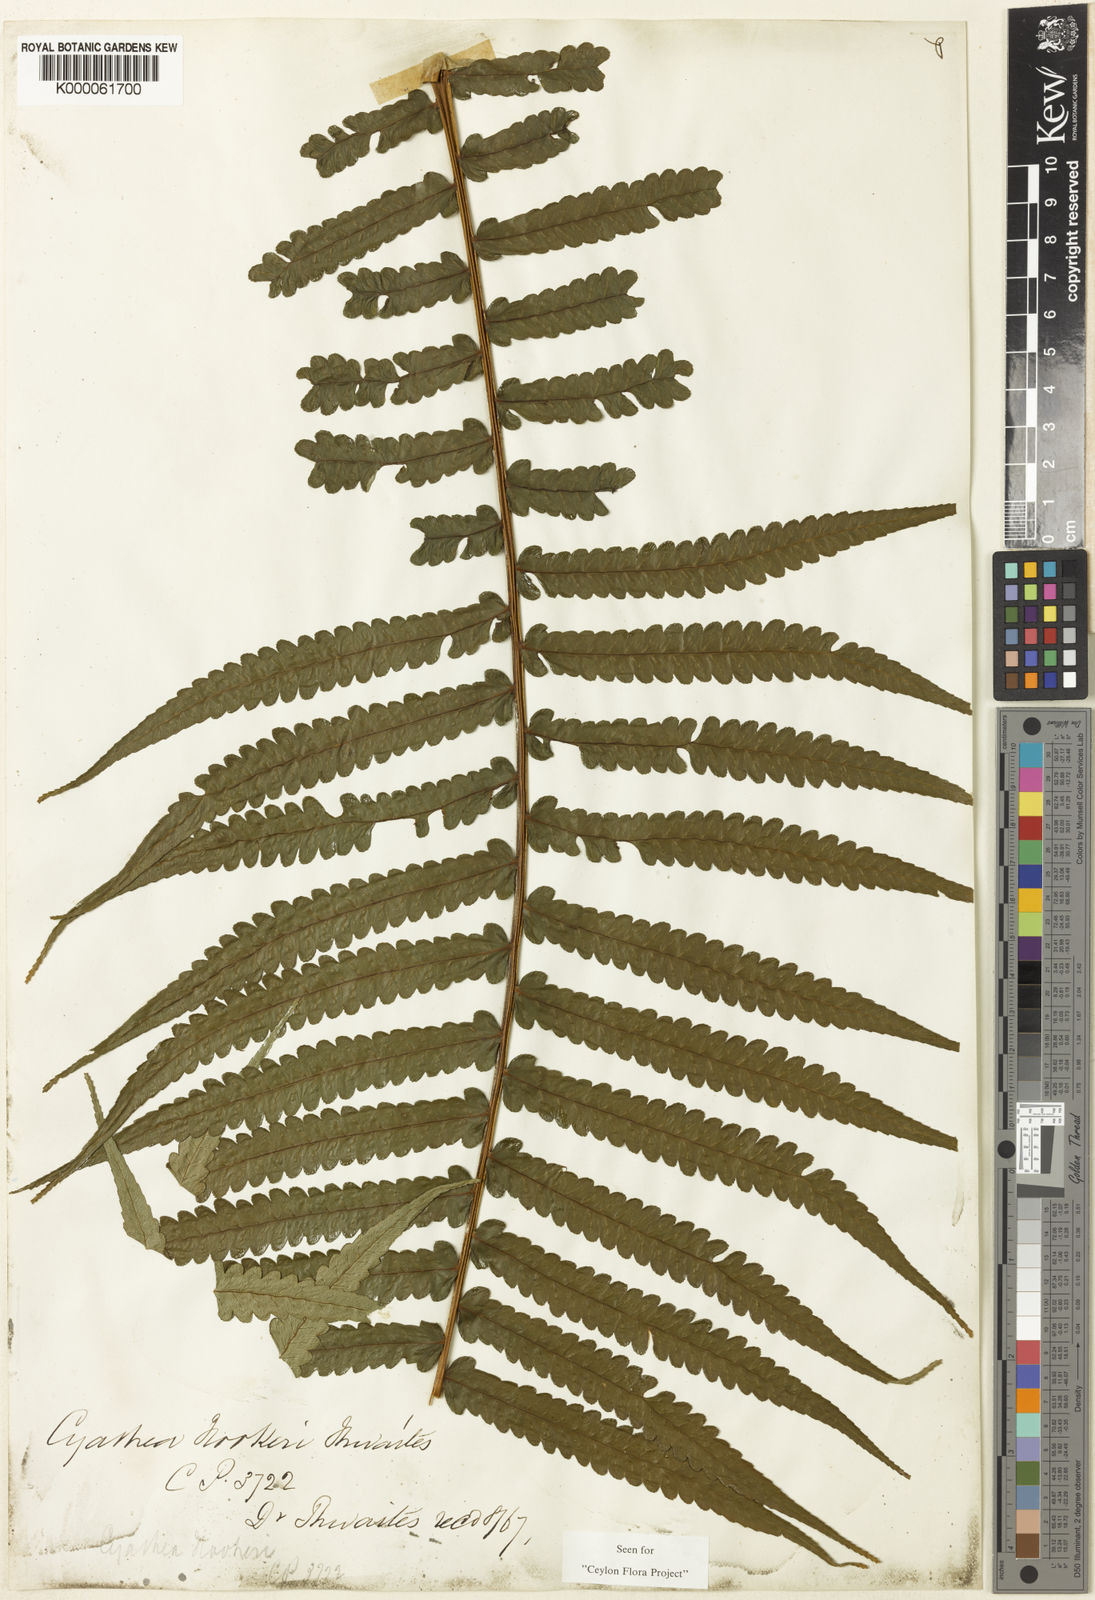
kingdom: Plantae
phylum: Tracheophyta
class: Polypodiopsida
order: Cyatheales
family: Cyatheaceae
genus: Alsophila
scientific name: Alsophila hookeri
